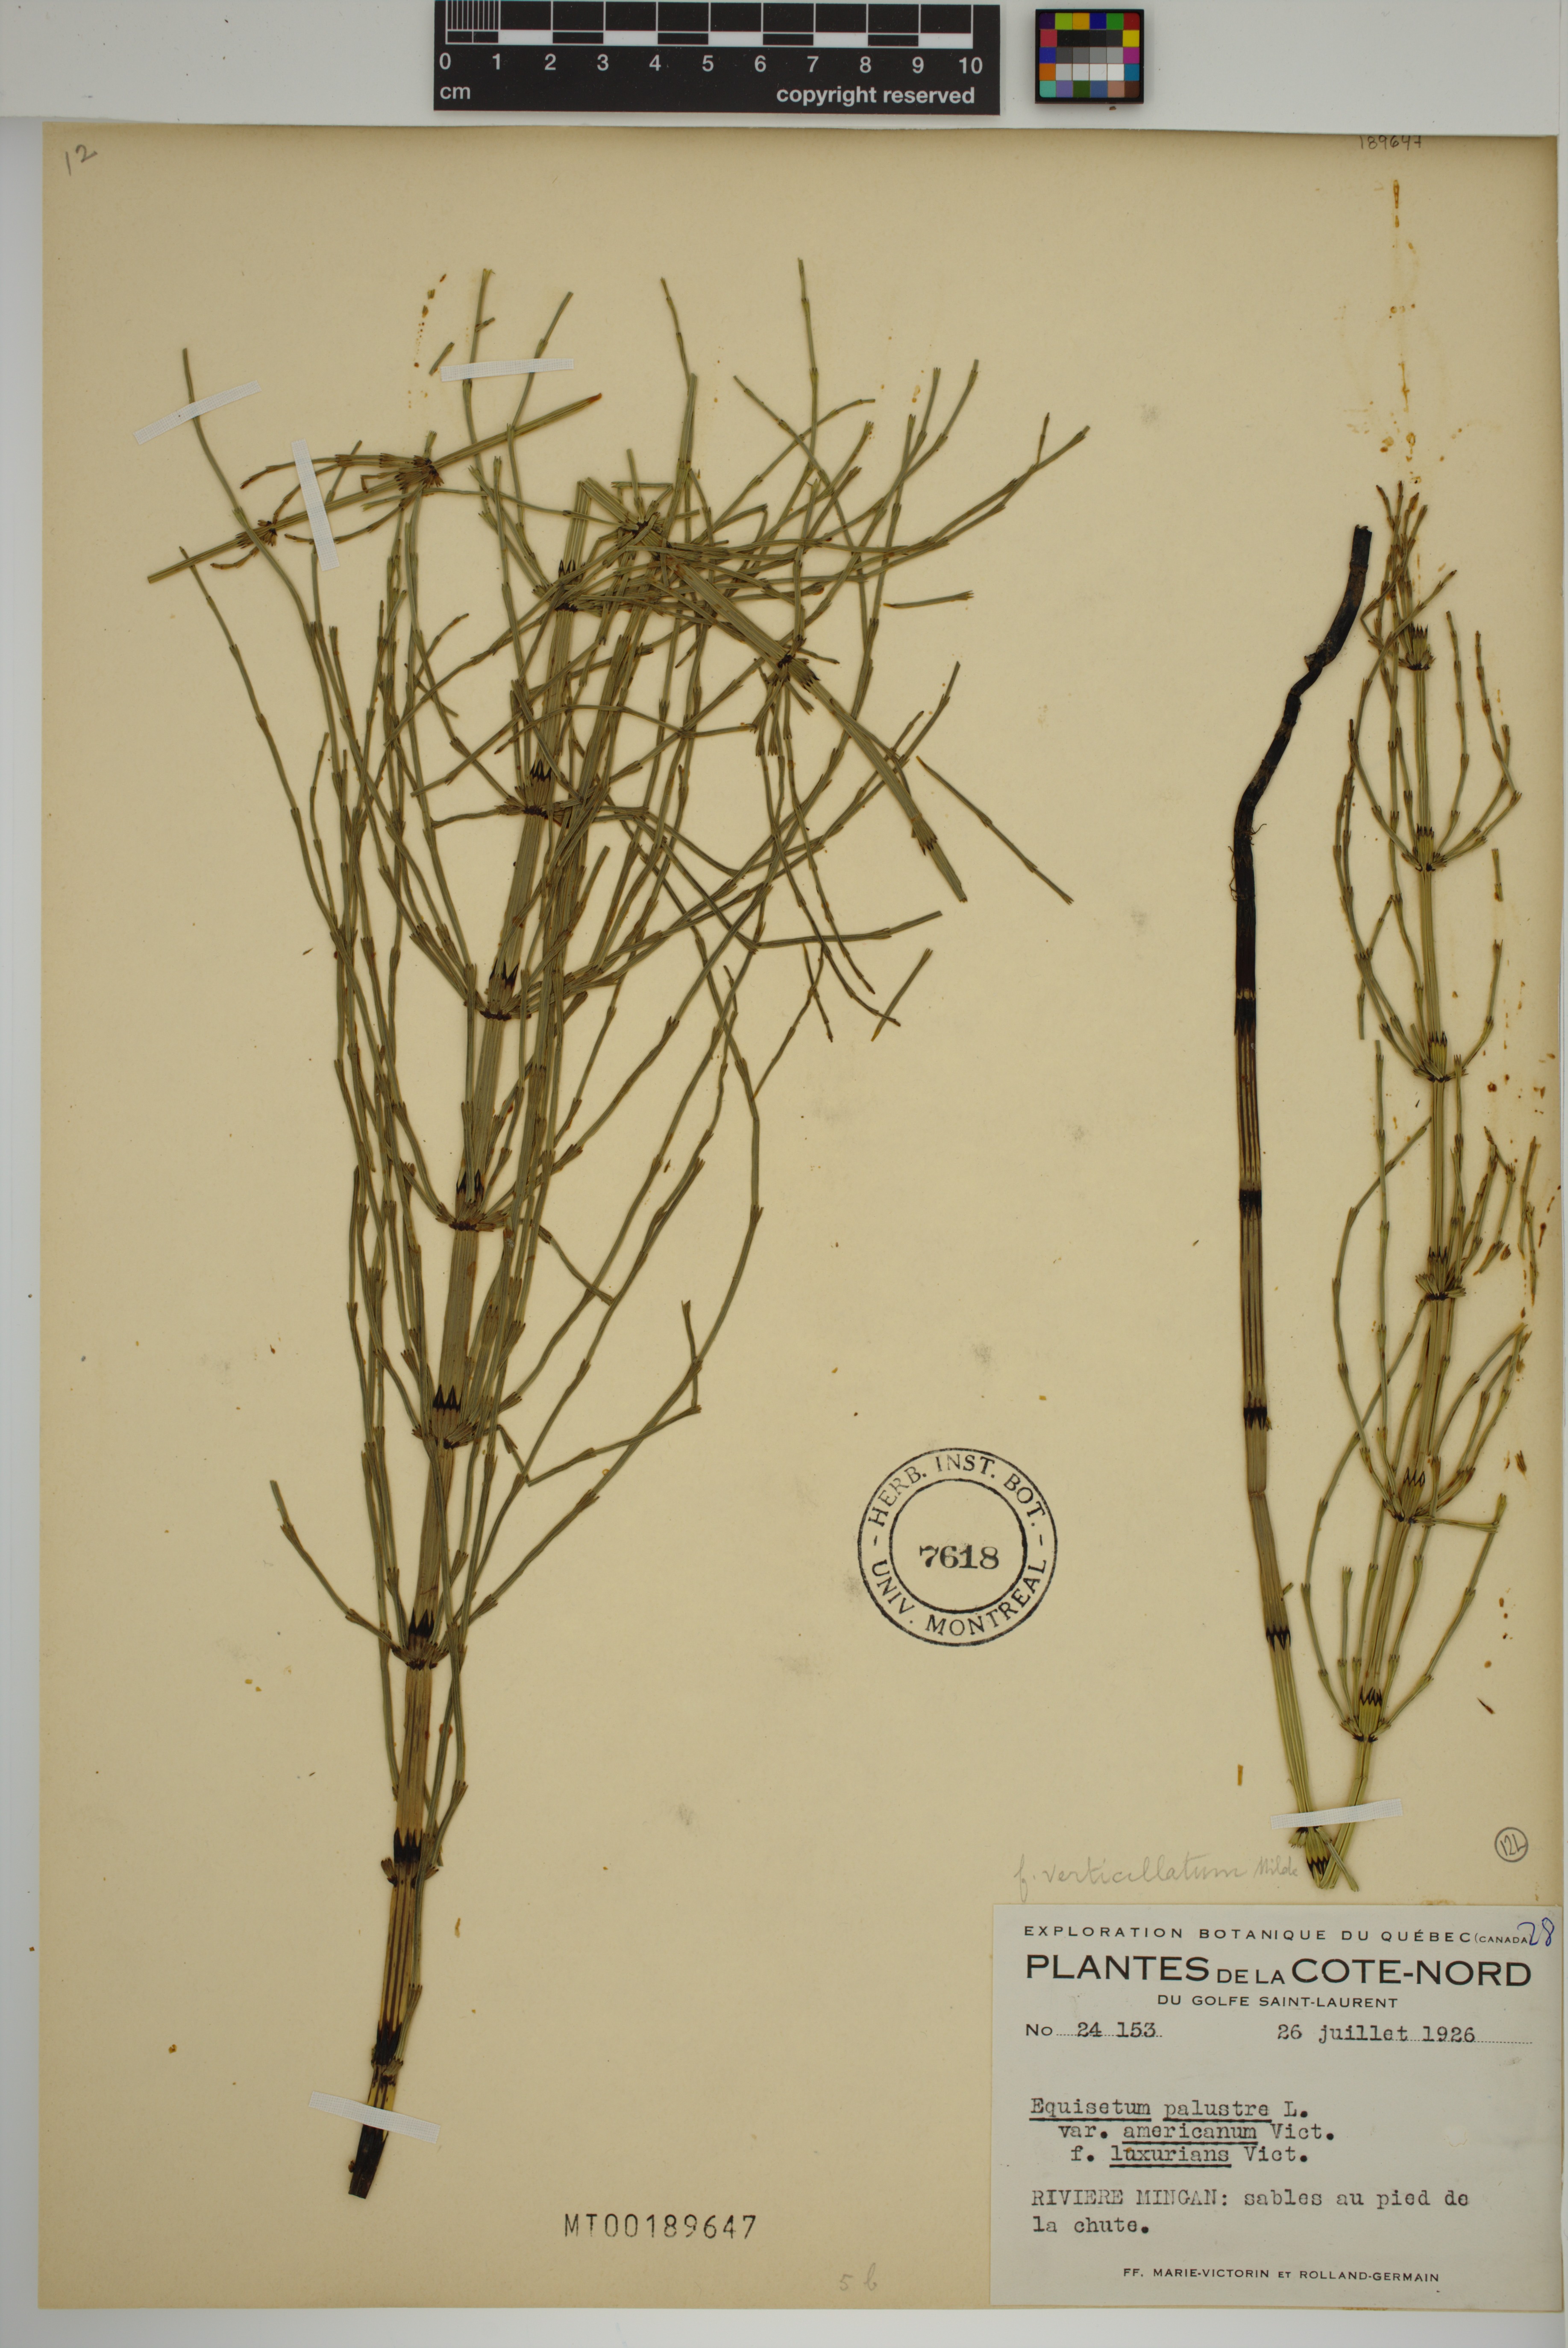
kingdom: Plantae
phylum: Tracheophyta
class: Polypodiopsida
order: Equisetales
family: Equisetaceae
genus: Equisetum
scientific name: Equisetum palustre
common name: Marsh horsetail
